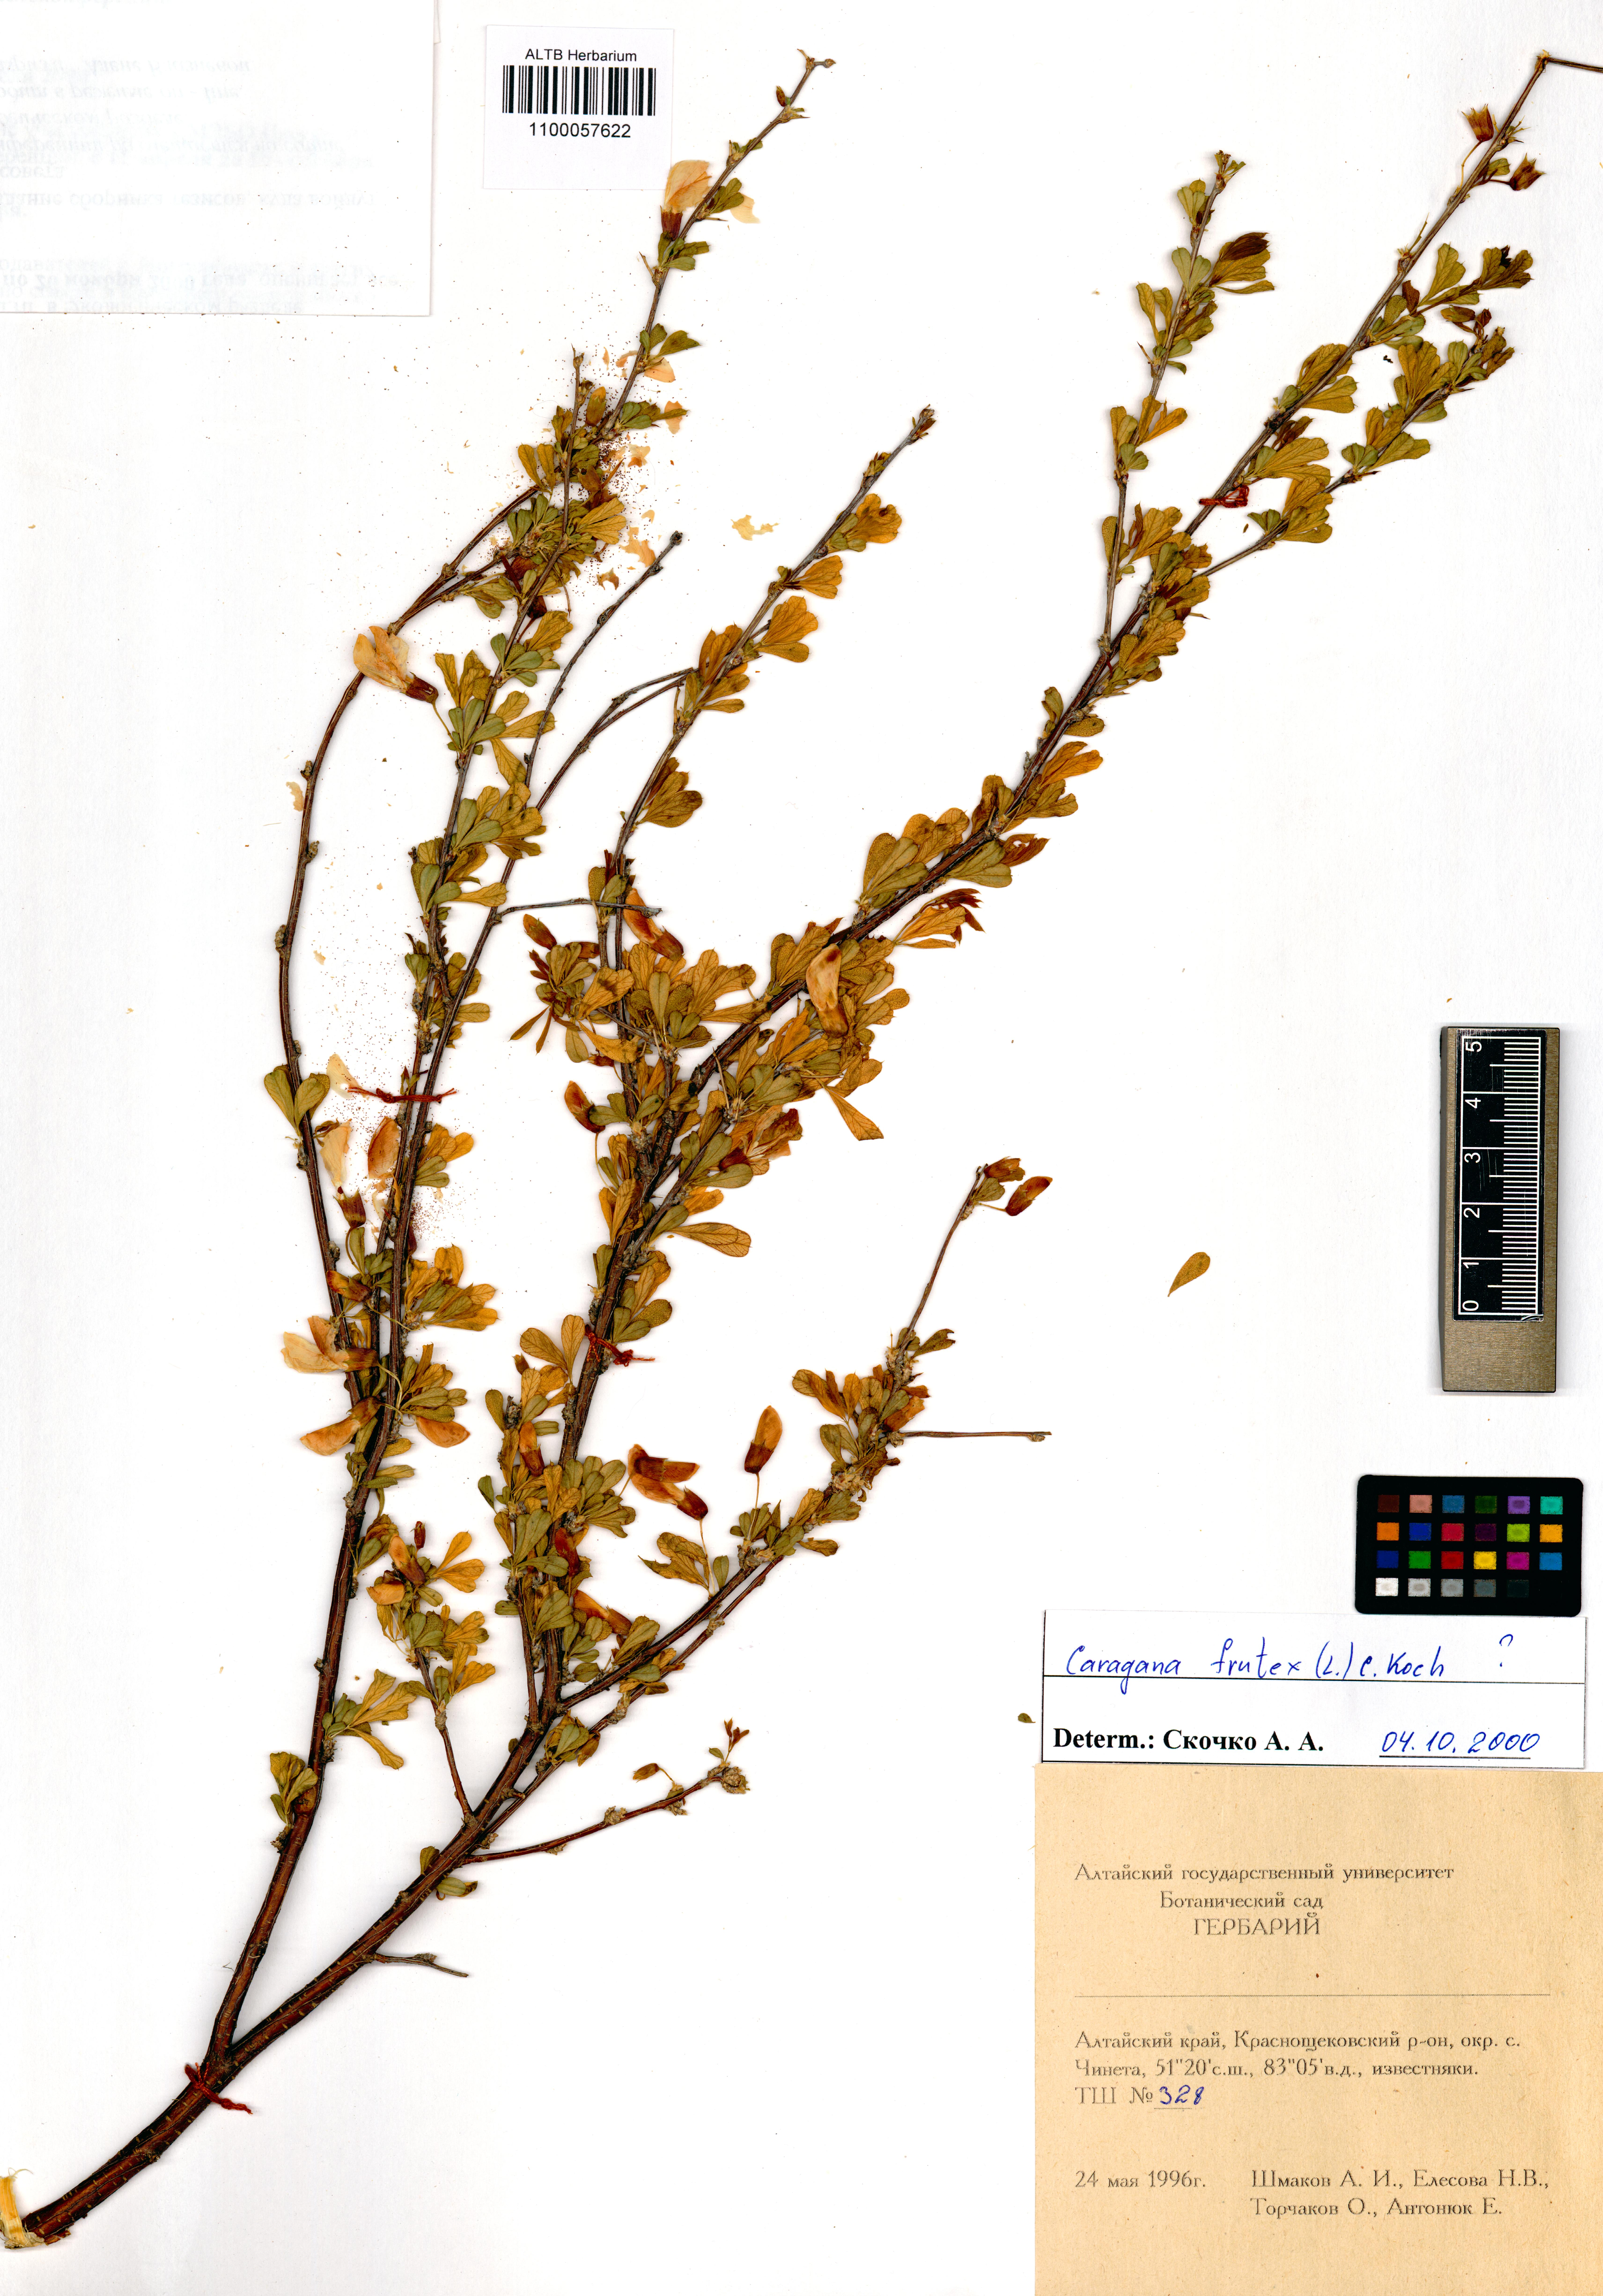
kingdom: Plantae
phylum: Tracheophyta
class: Magnoliopsida
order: Fabales
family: Fabaceae
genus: Caragana
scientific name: Caragana frutex
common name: Russian peashrub
